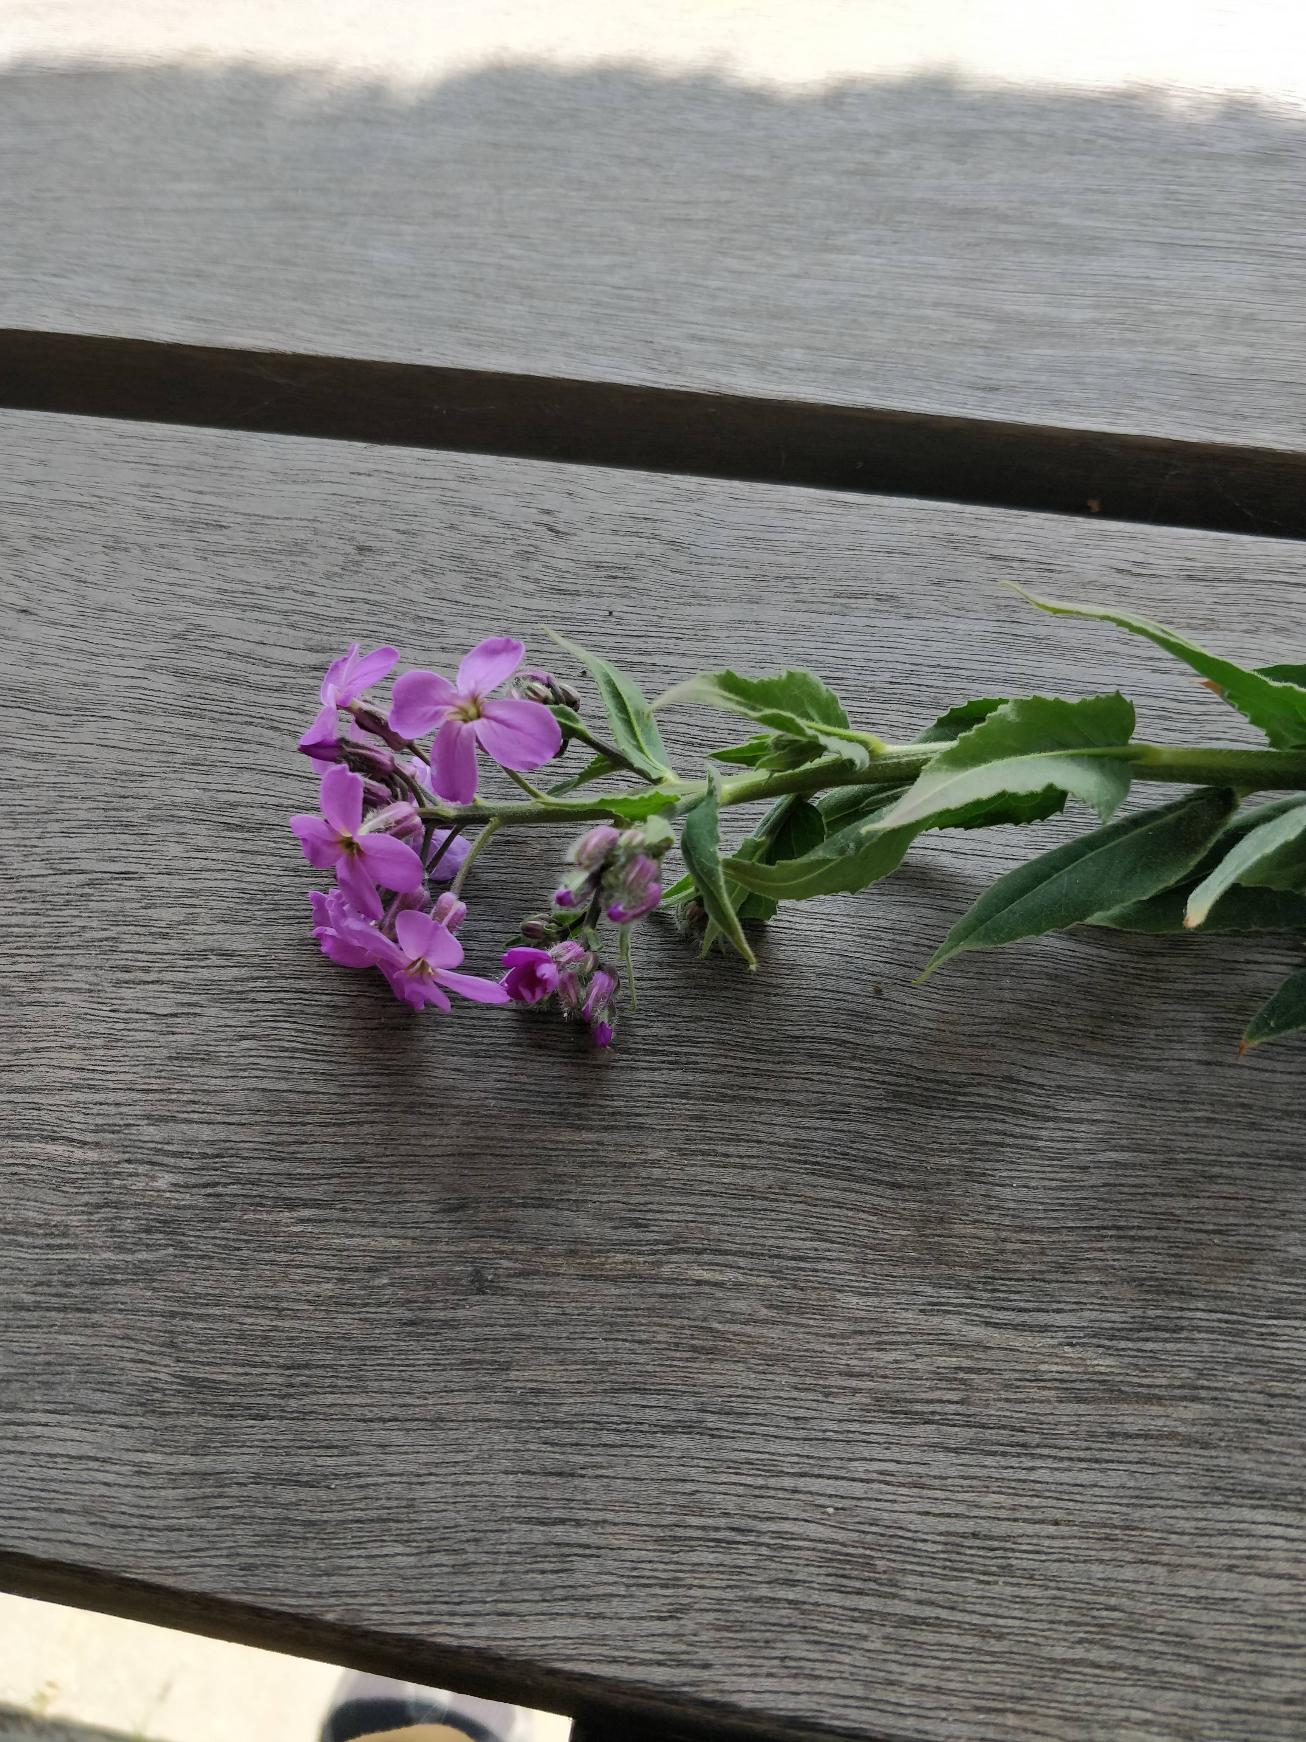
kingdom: Plantae
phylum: Tracheophyta
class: Magnoliopsida
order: Brassicales
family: Brassicaceae
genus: Hesperis
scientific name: Hesperis matronalis
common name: Aftenstjerne
